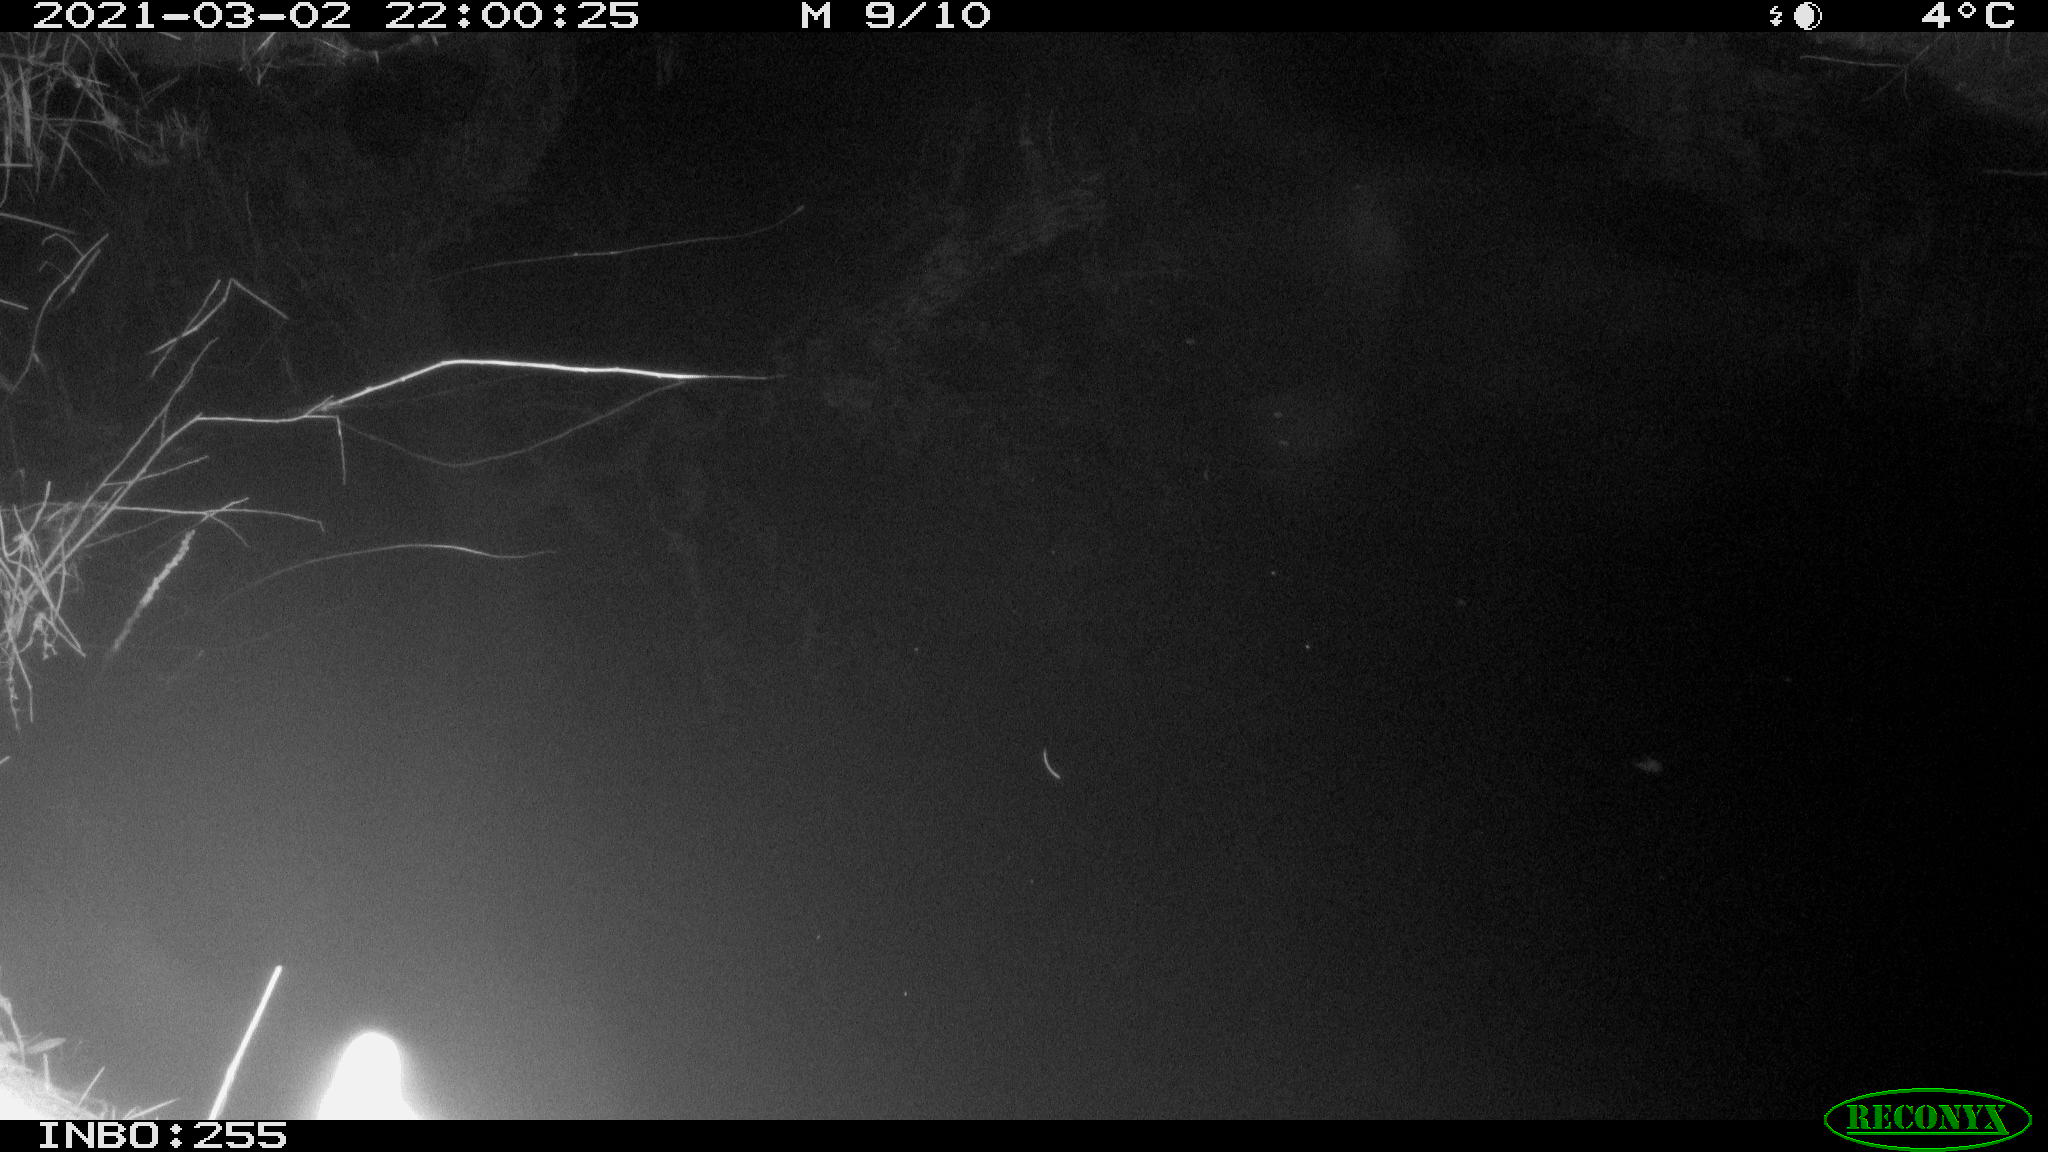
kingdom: Animalia
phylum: Chordata
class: Aves
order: Anseriformes
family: Anatidae
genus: Anas
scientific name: Anas platyrhynchos
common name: Mallard
